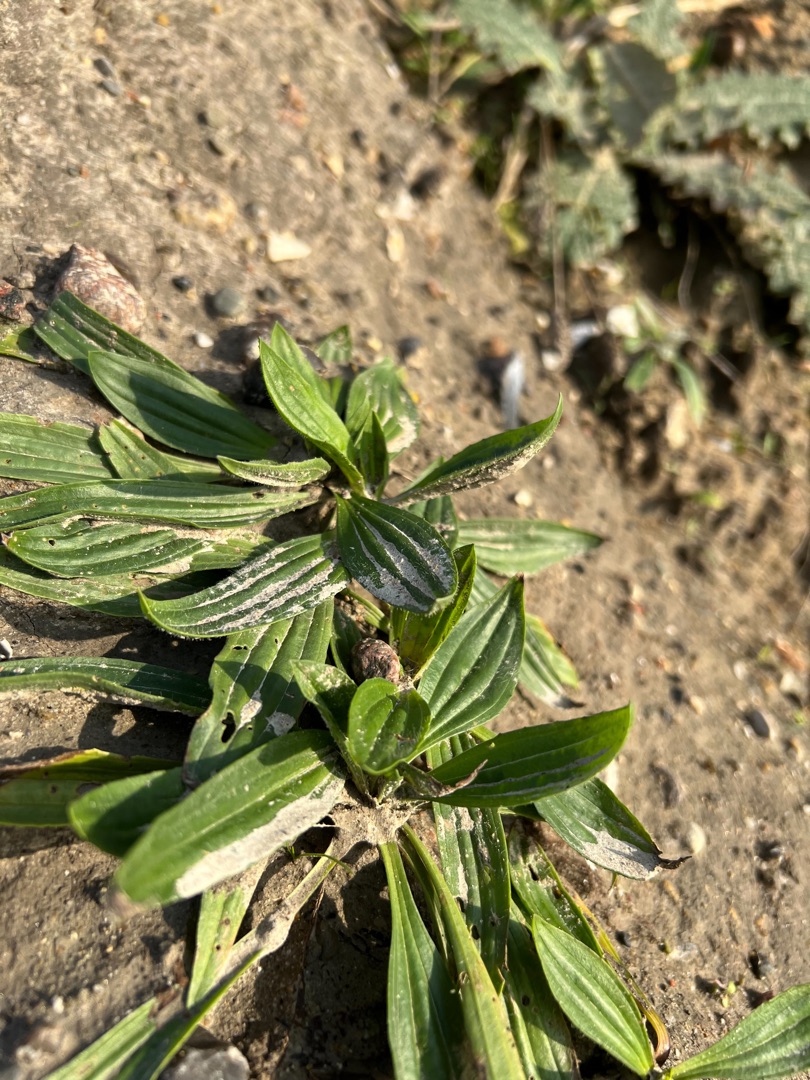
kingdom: Plantae
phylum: Tracheophyta
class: Magnoliopsida
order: Lamiales
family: Plantaginaceae
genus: Plantago
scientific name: Plantago lanceolata
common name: Lancet-vejbred
